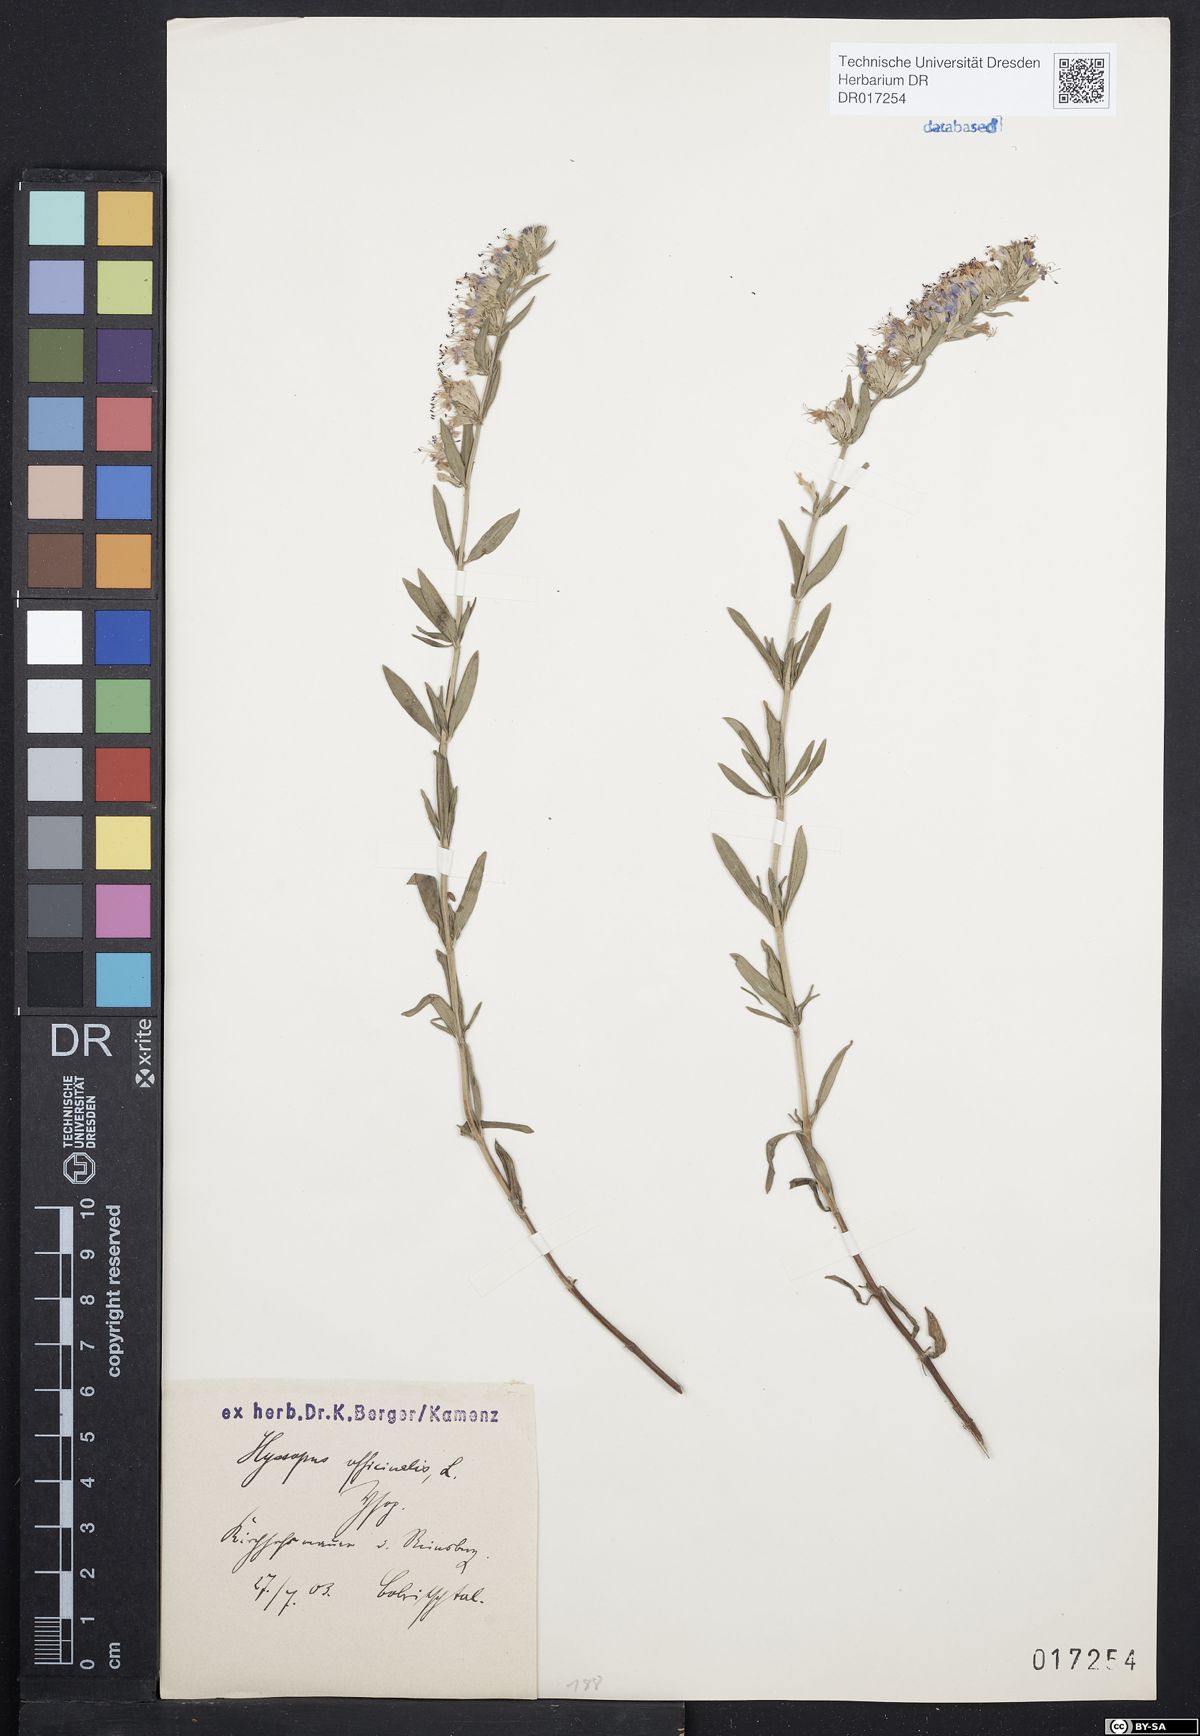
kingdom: Plantae
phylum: Tracheophyta
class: Magnoliopsida
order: Lamiales
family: Lamiaceae
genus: Hyssopus
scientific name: Hyssopus officinalis
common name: Hyssop
